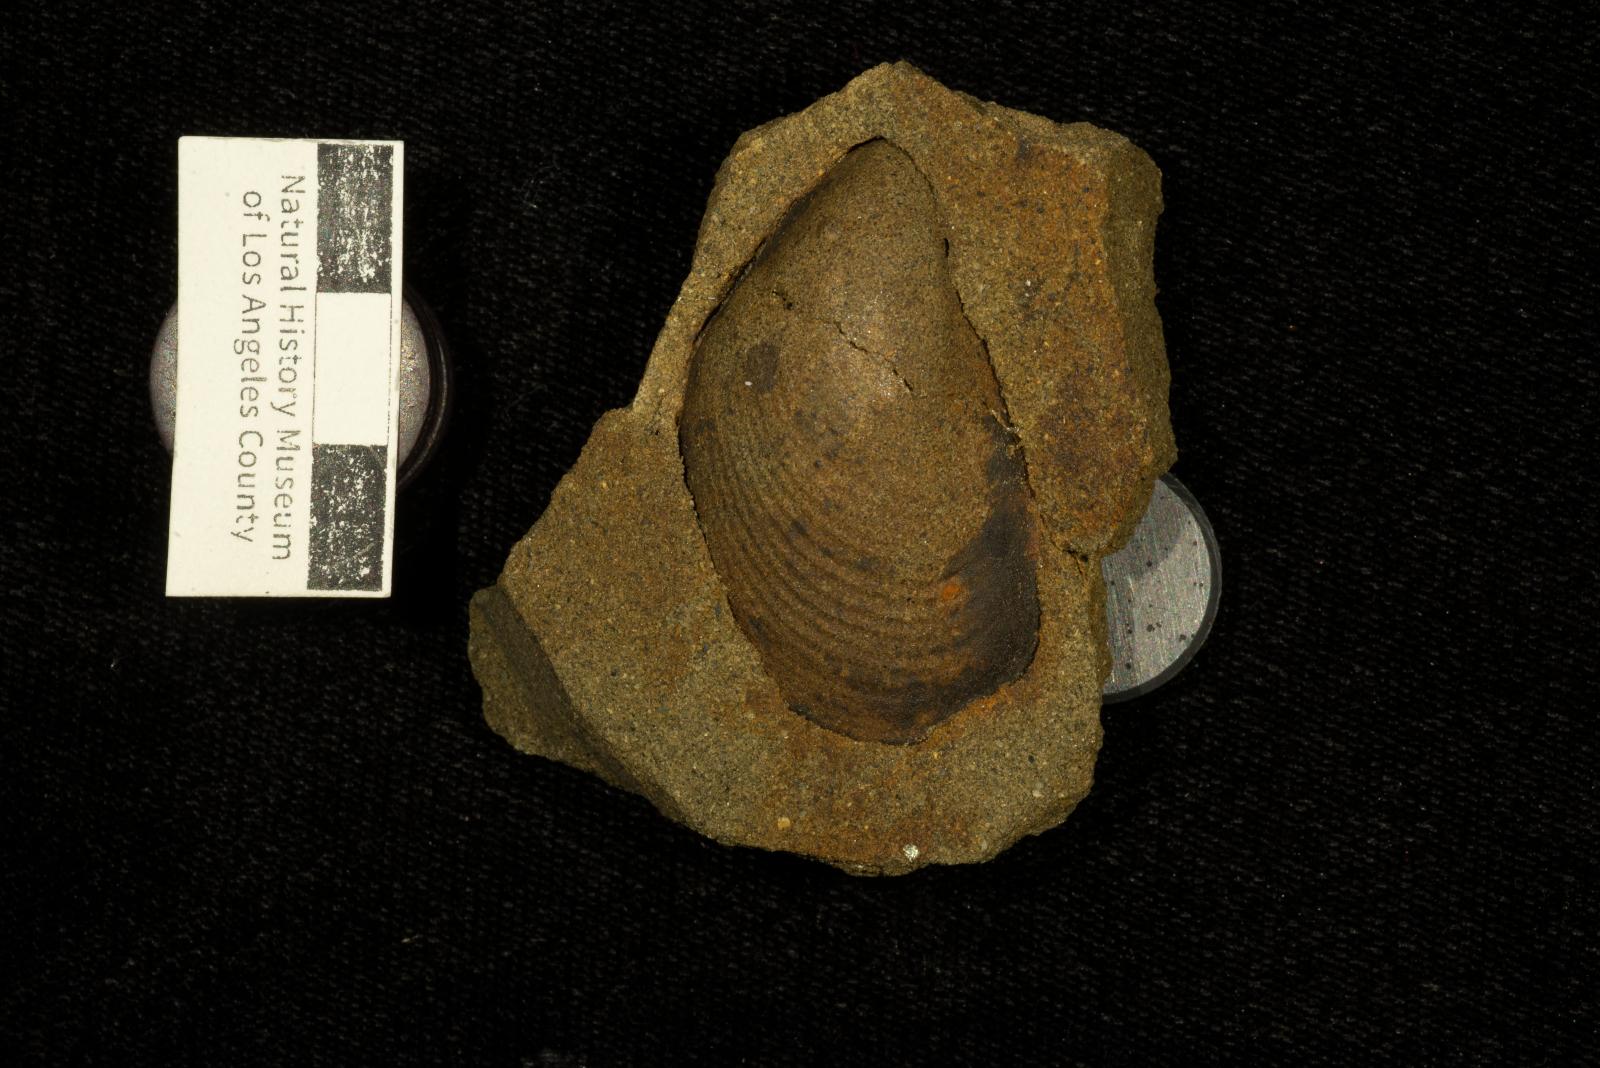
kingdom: Animalia
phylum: Mollusca
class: Bivalvia
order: Myalinida
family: Inoceramidae
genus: Sphenoceramus
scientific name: Sphenoceramus naumanni
